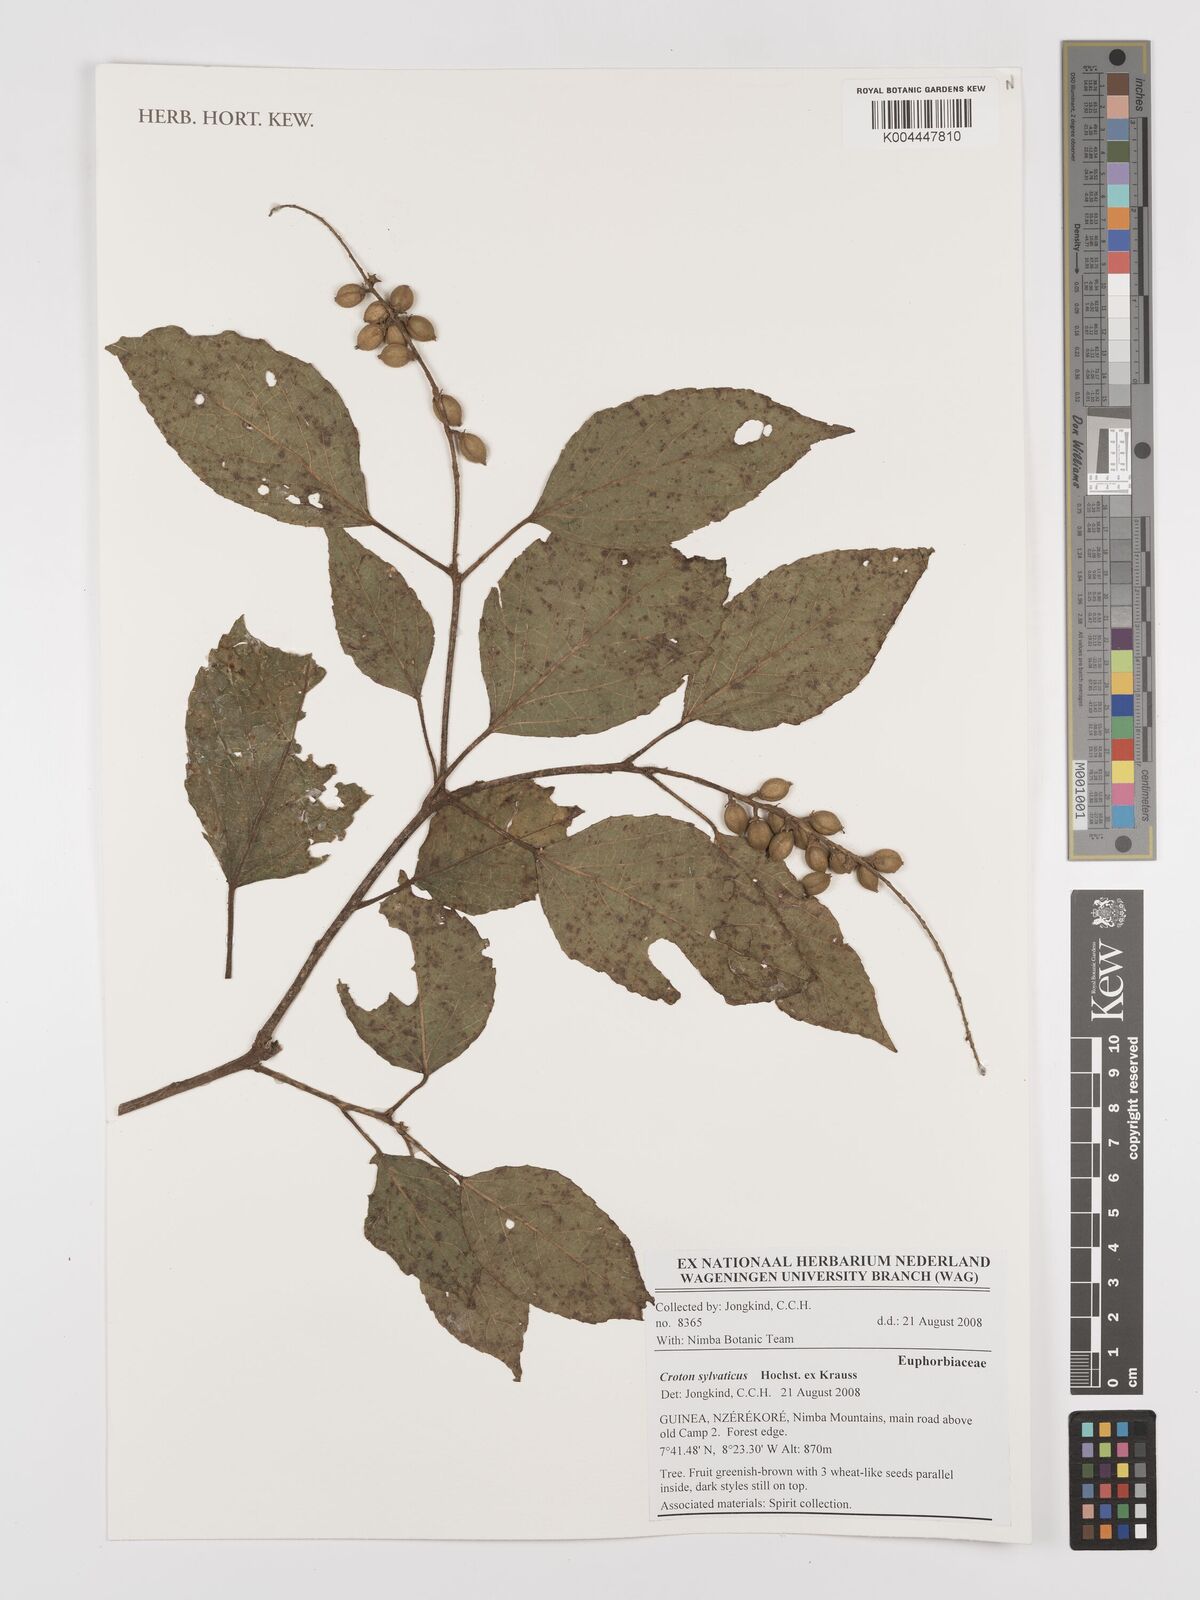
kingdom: Plantae
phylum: Tracheophyta
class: Magnoliopsida
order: Malpighiales
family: Euphorbiaceae
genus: Croton
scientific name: Croton
